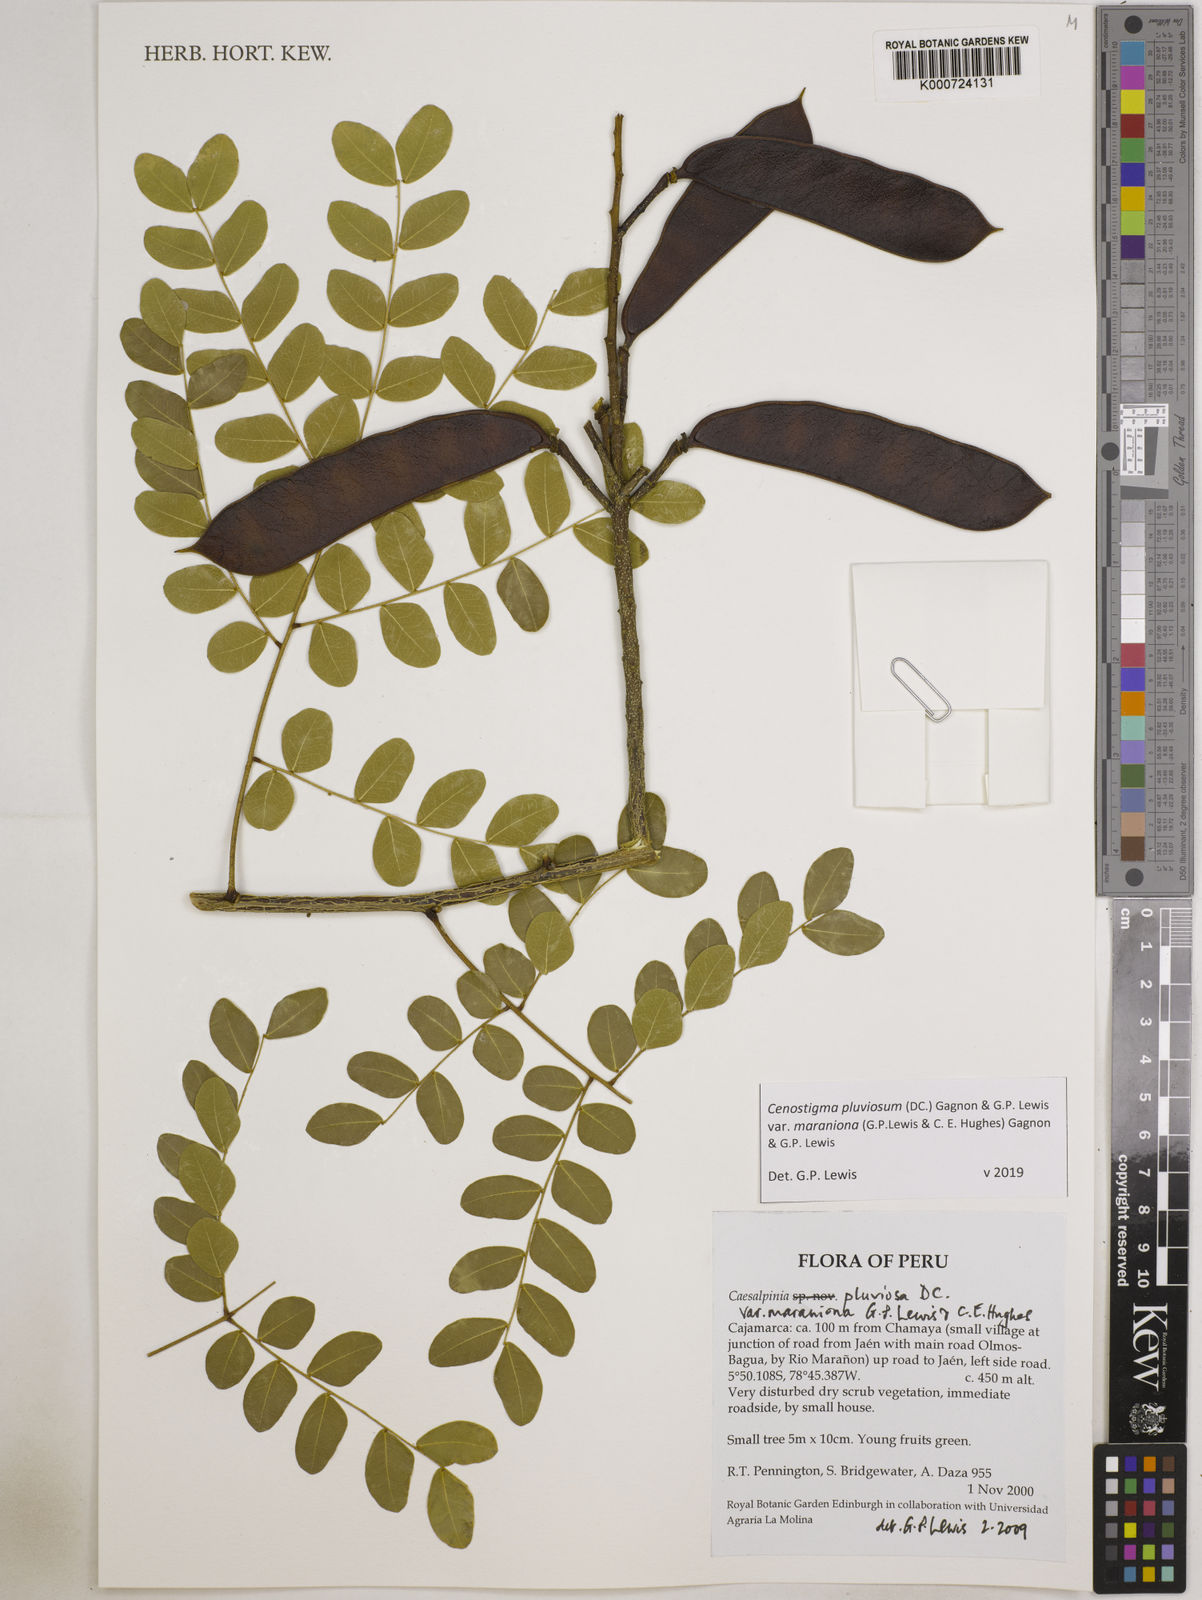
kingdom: Plantae
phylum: Tracheophyta
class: Magnoliopsida
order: Fabales
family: Fabaceae
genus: Cenostigma
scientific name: Cenostigma pluviosum
